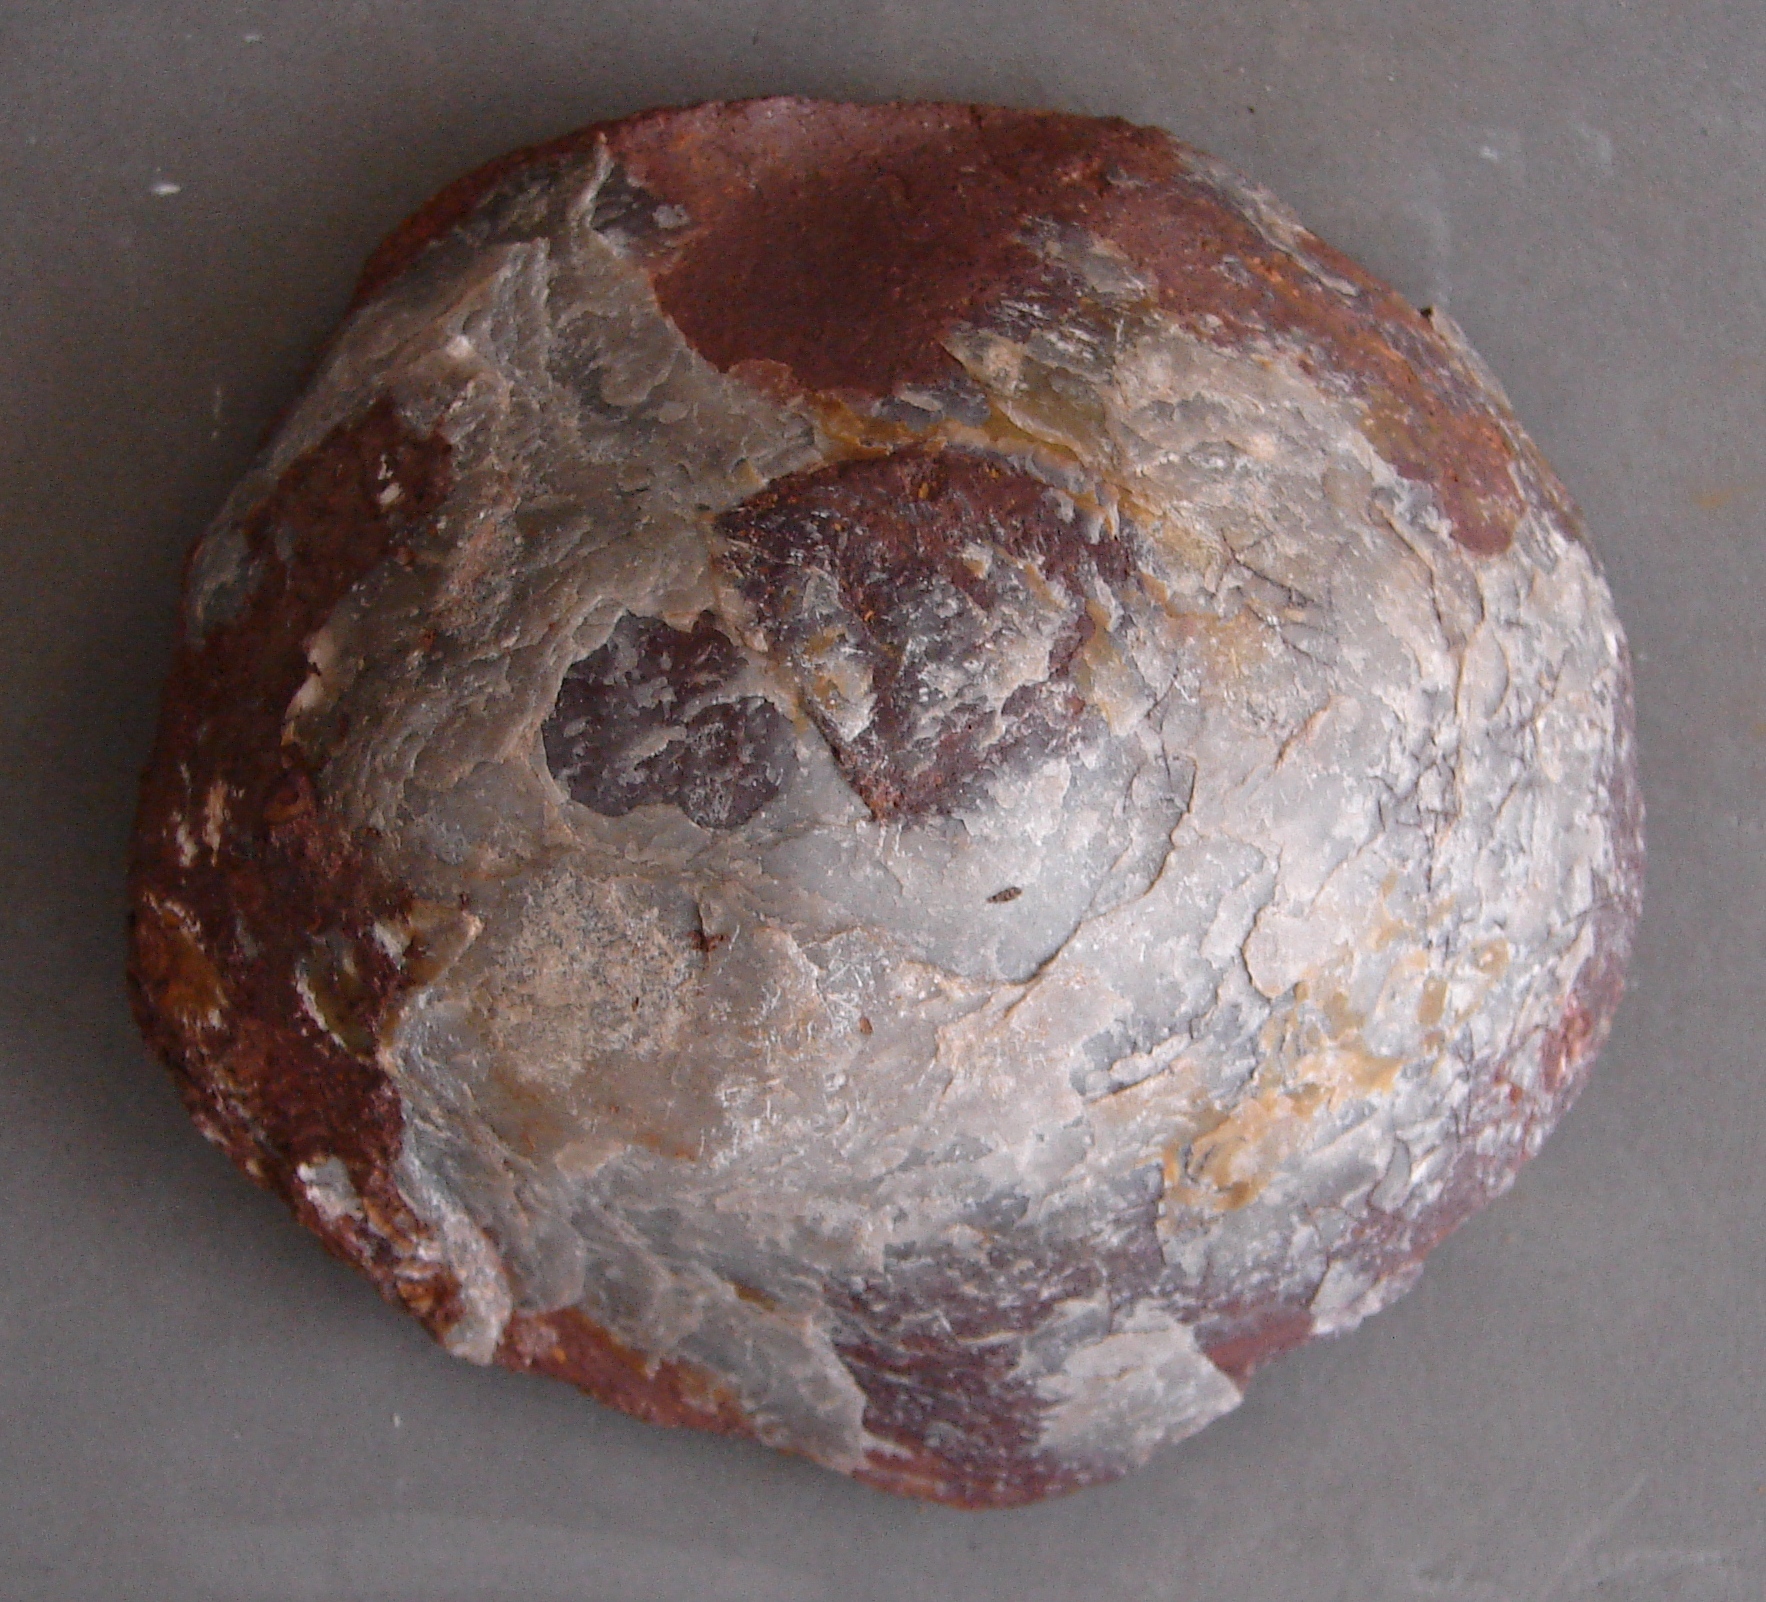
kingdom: Animalia
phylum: Mollusca
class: Bivalvia
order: Ostreida
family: Gryphaeidae
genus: Gryphaea
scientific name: Gryphaea
